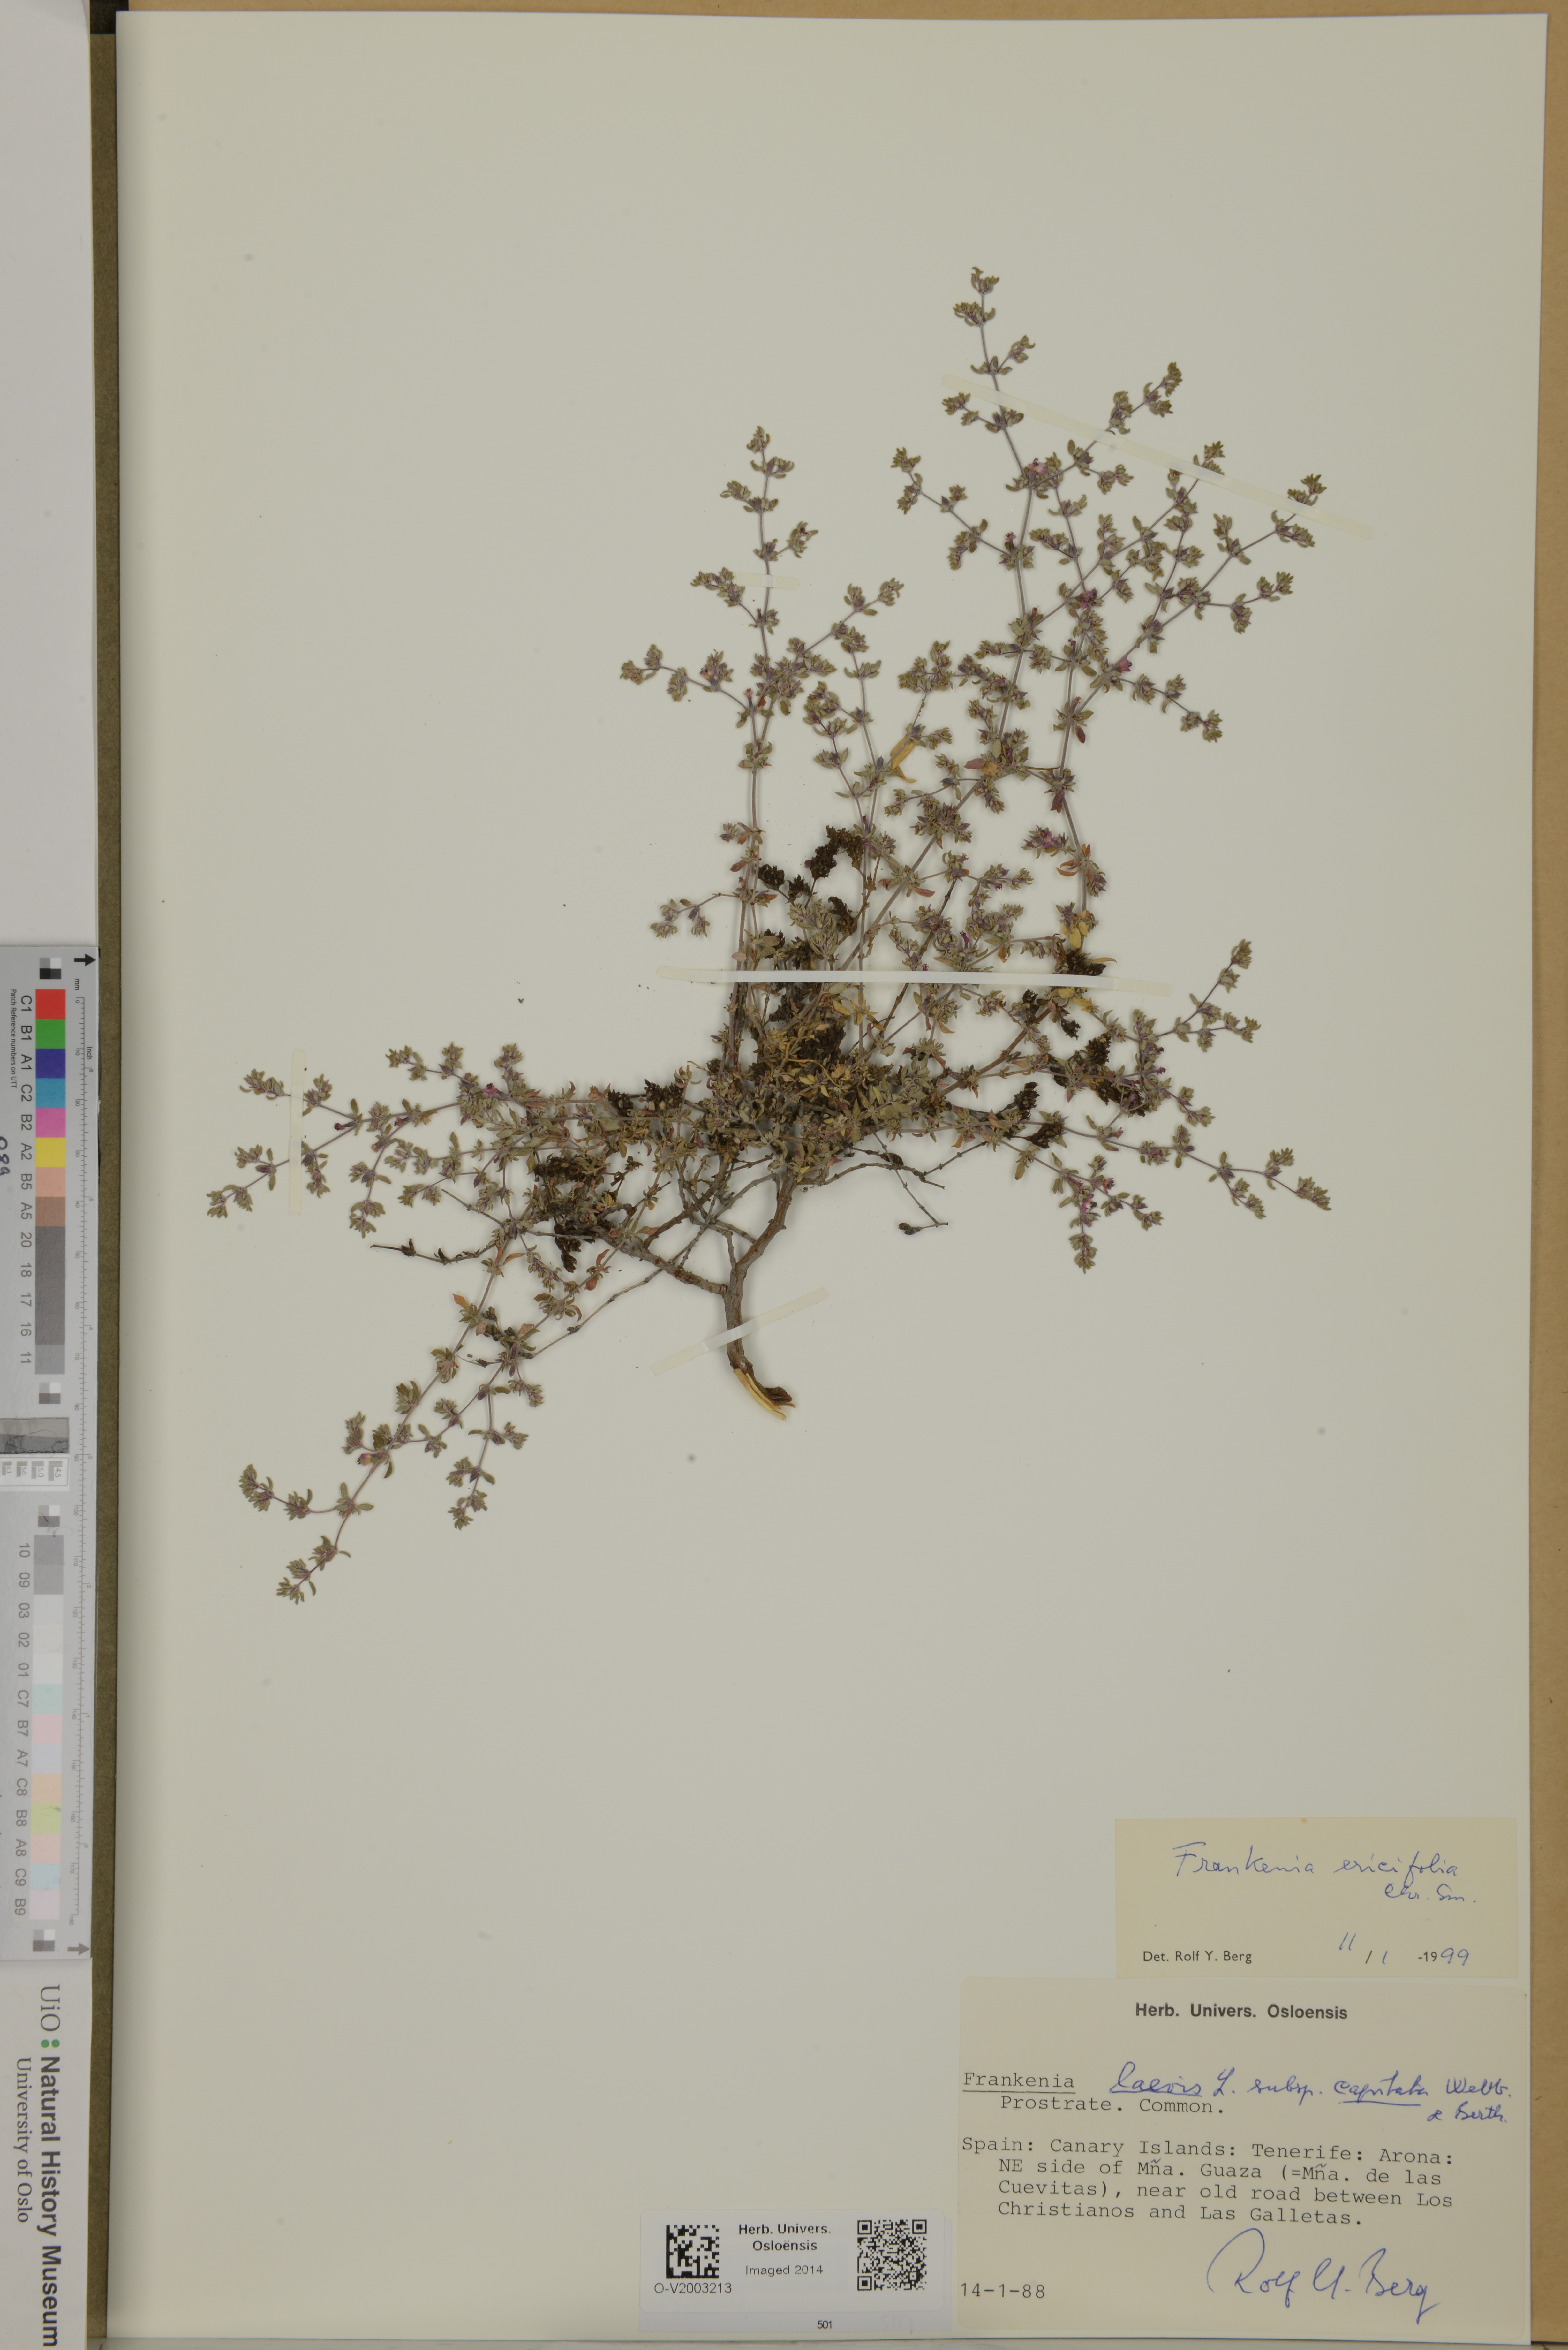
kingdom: Plantae
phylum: Tracheophyta
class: Magnoliopsida
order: Caryophyllales
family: Frankeniaceae
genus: Frankenia
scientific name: Frankenia ericifolia
